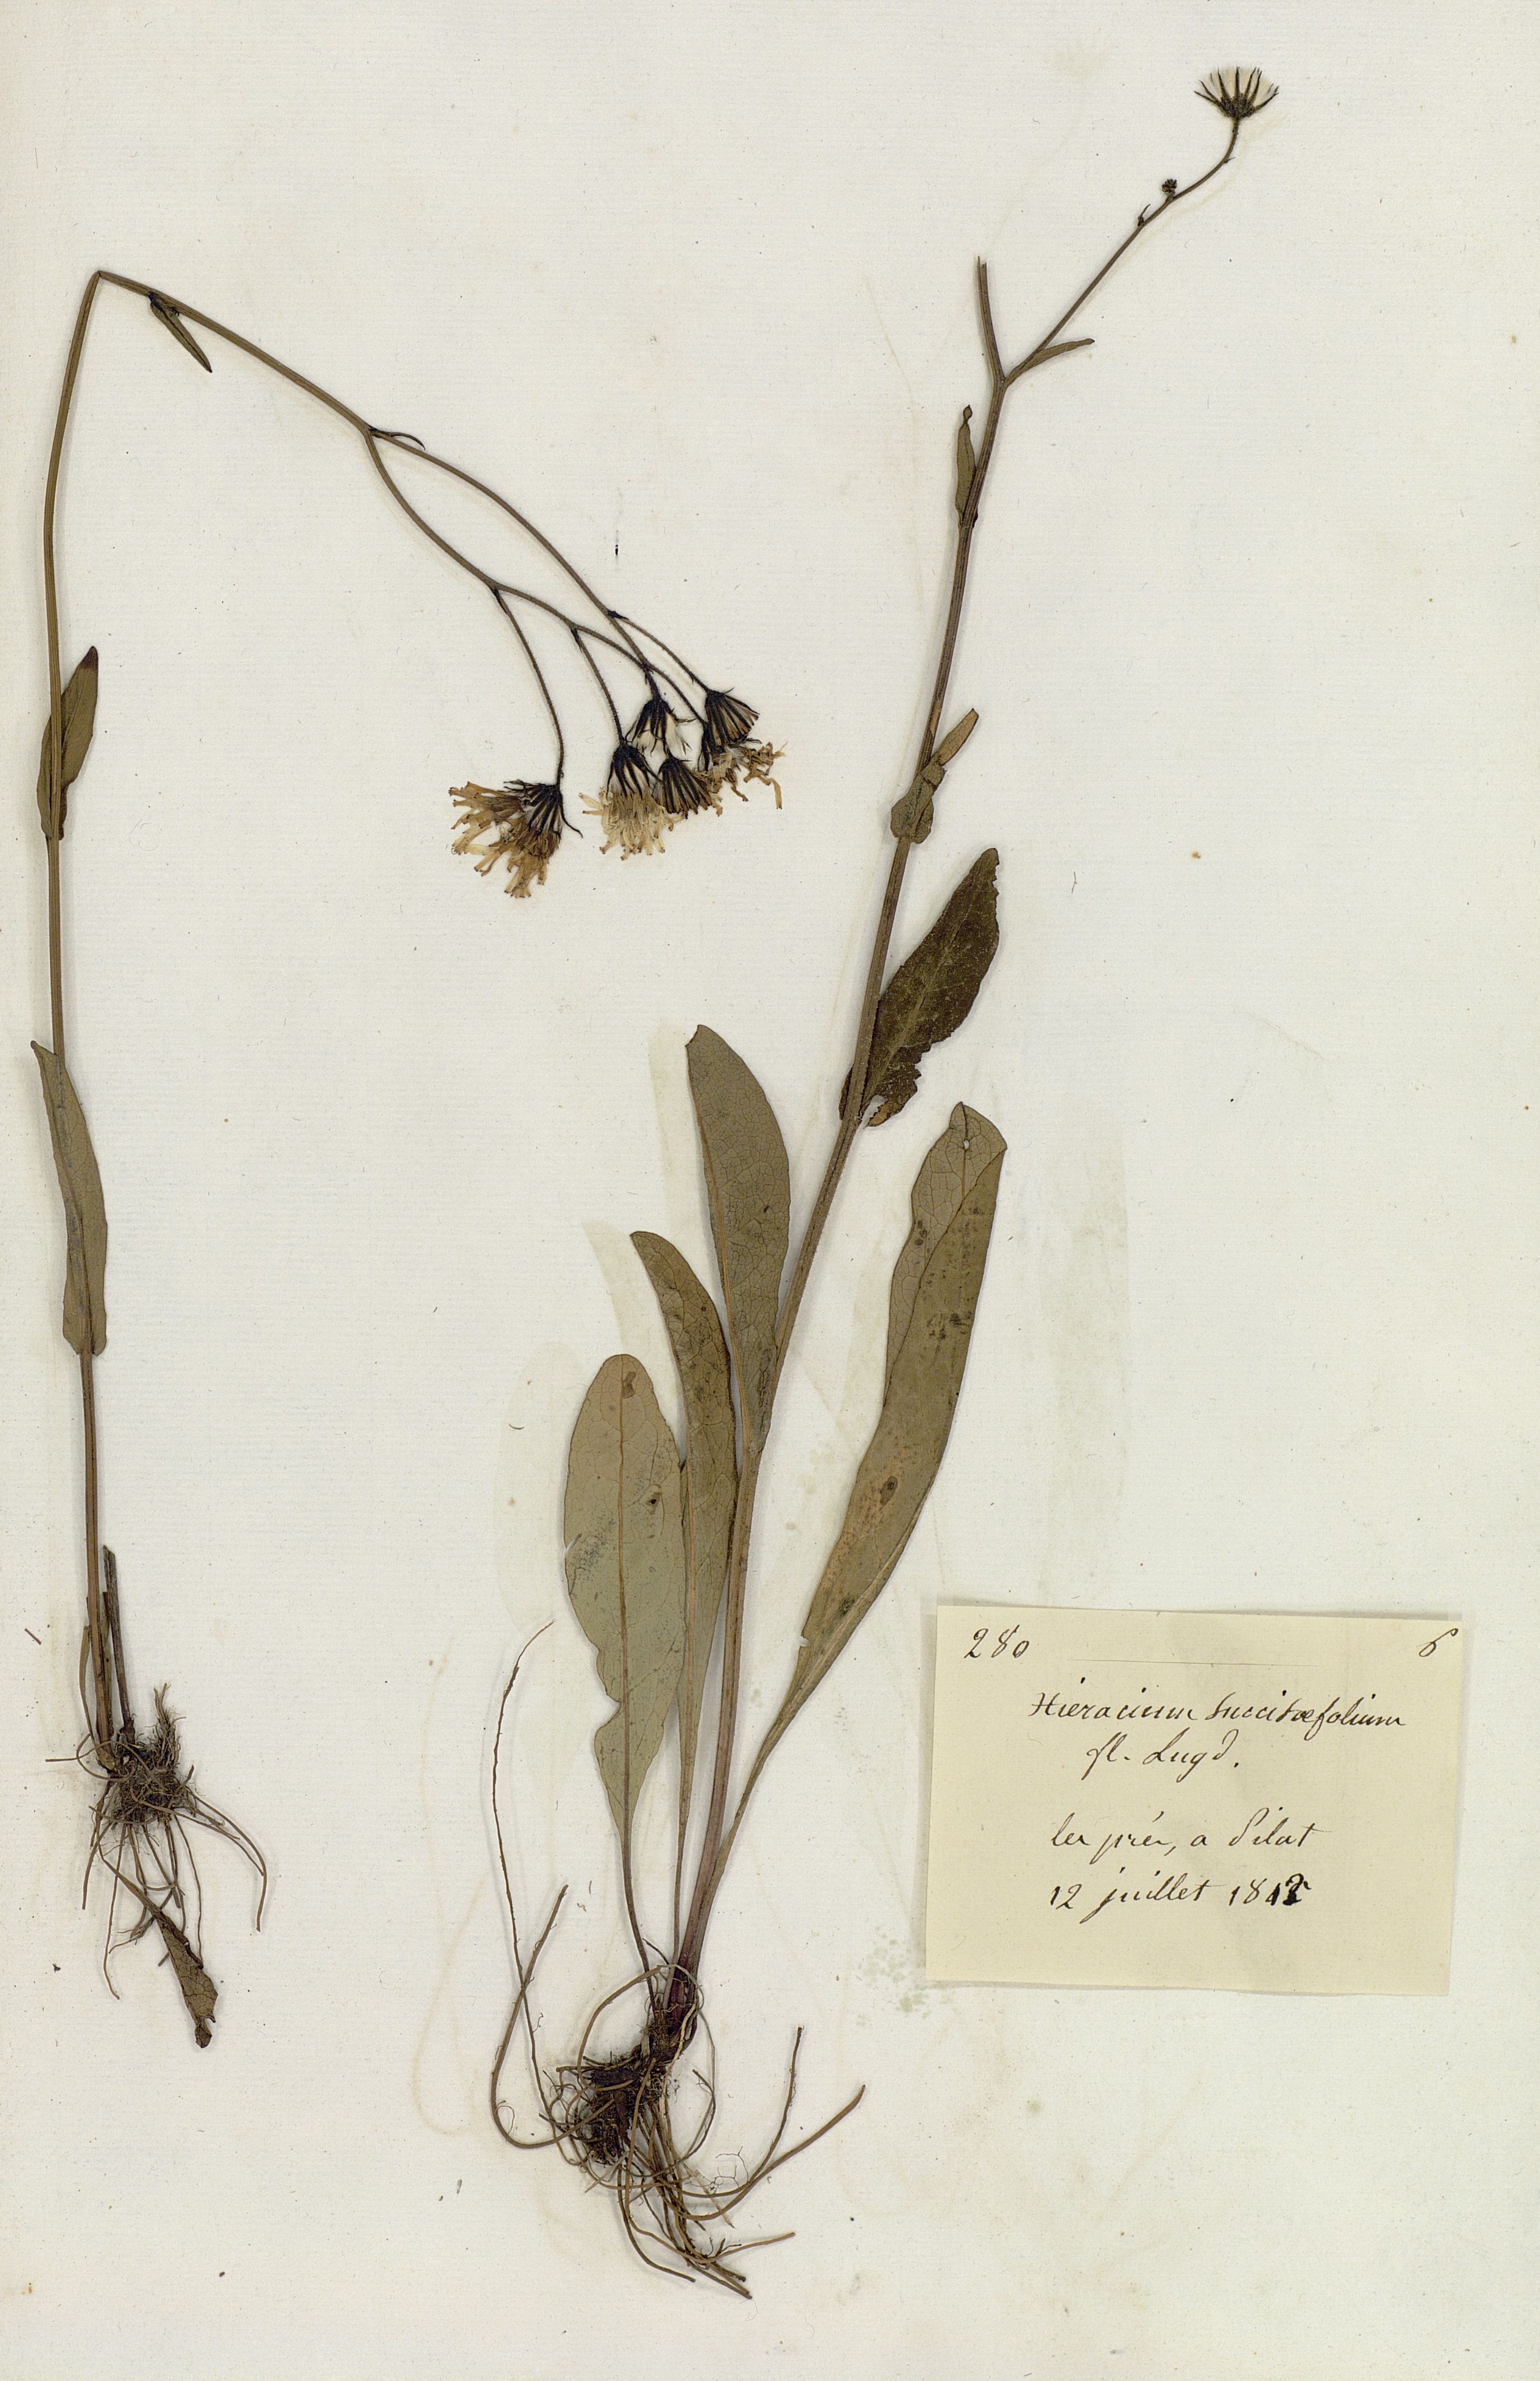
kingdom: Plantae
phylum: Tracheophyta
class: Magnoliopsida
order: Asterales
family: Asteraceae
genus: Crepis
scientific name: Crepis mollis
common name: Northern hawk's-beard
